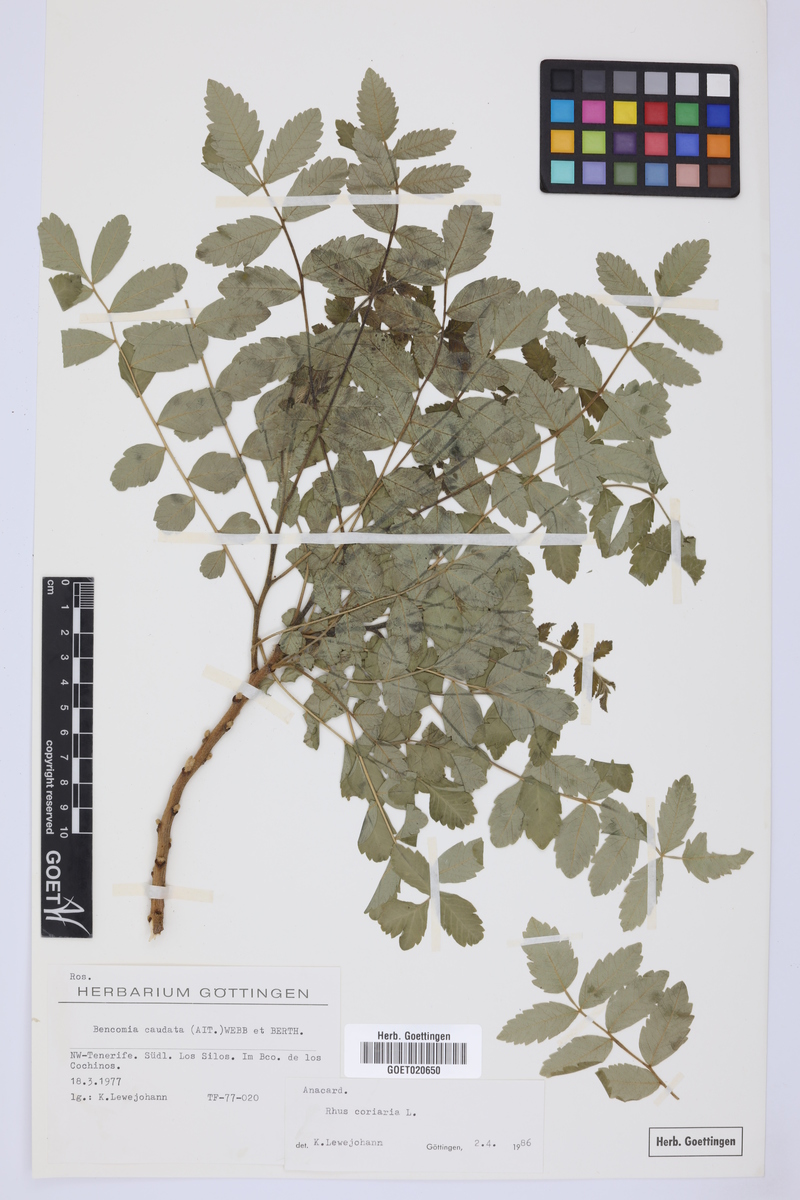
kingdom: Plantae
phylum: Tracheophyta
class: Magnoliopsida
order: Sapindales
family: Anacardiaceae
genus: Rhus
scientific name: Rhus coriaria
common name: Tanner's sumach
